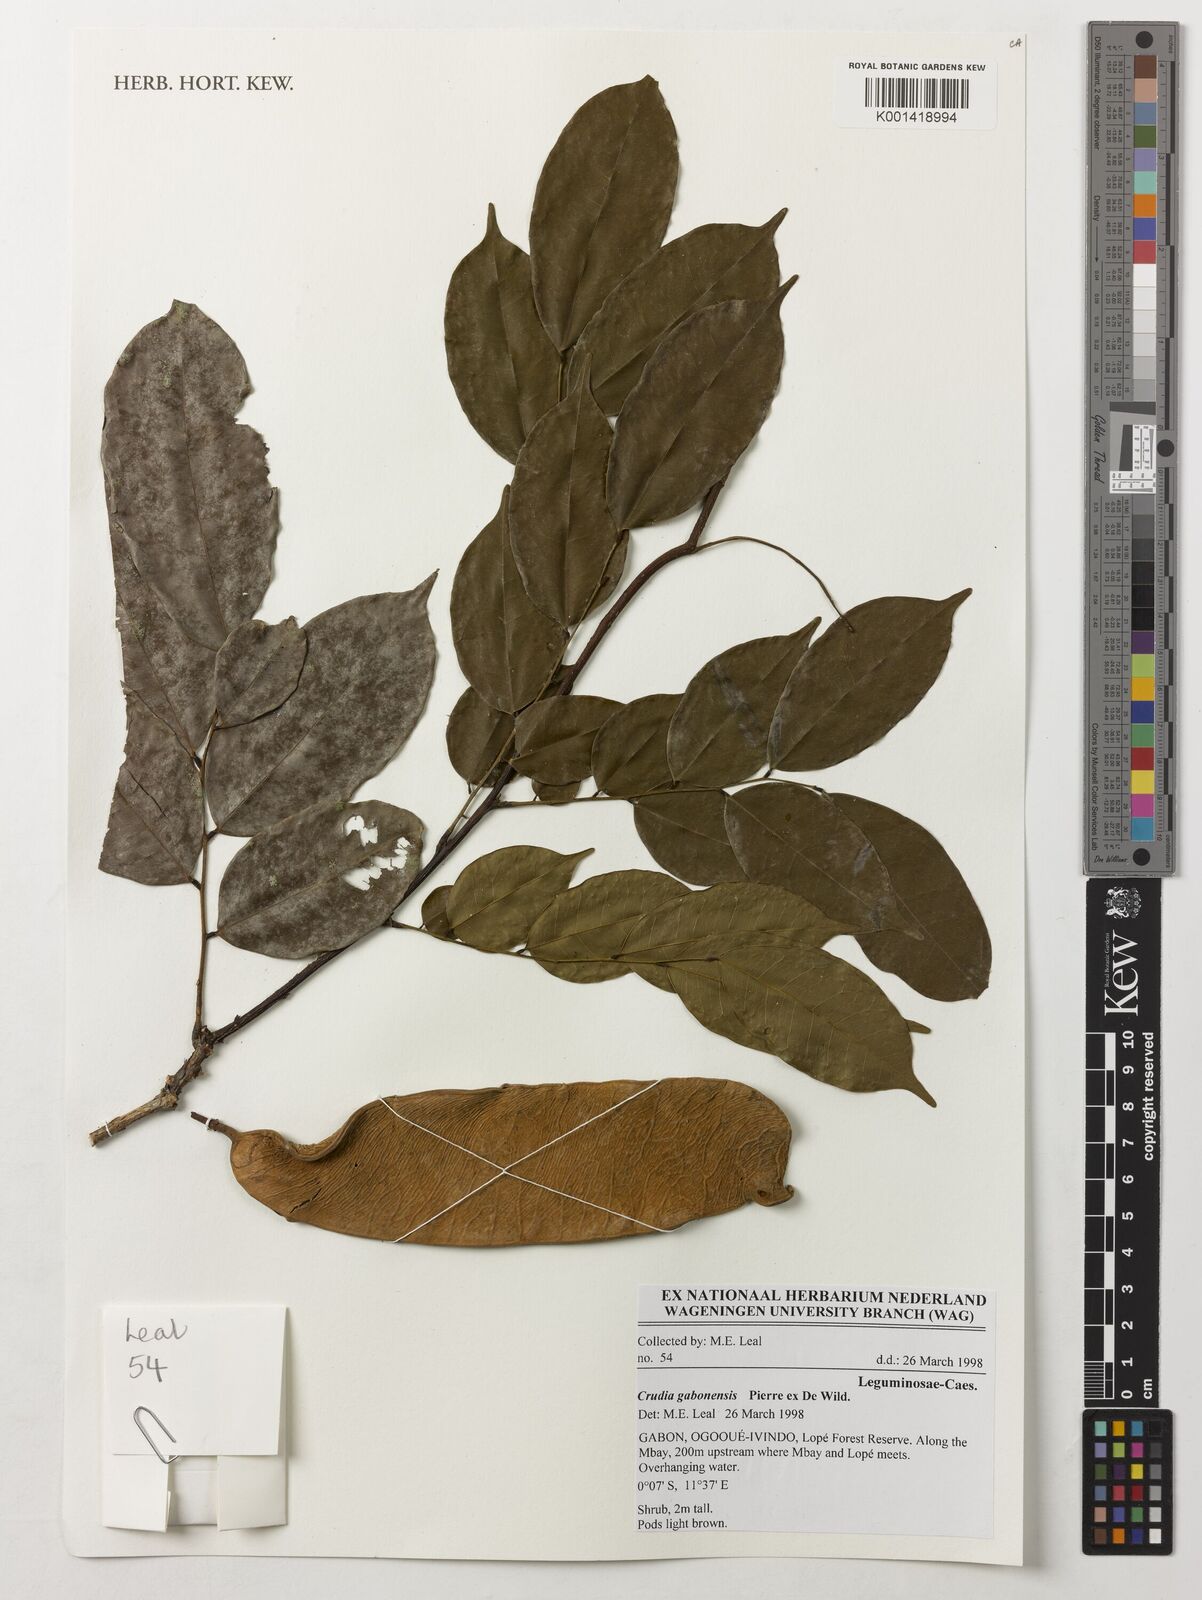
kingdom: Plantae
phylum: Tracheophyta
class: Magnoliopsida
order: Fabales
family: Fabaceae
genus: Crudia
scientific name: Crudia gabonensis
